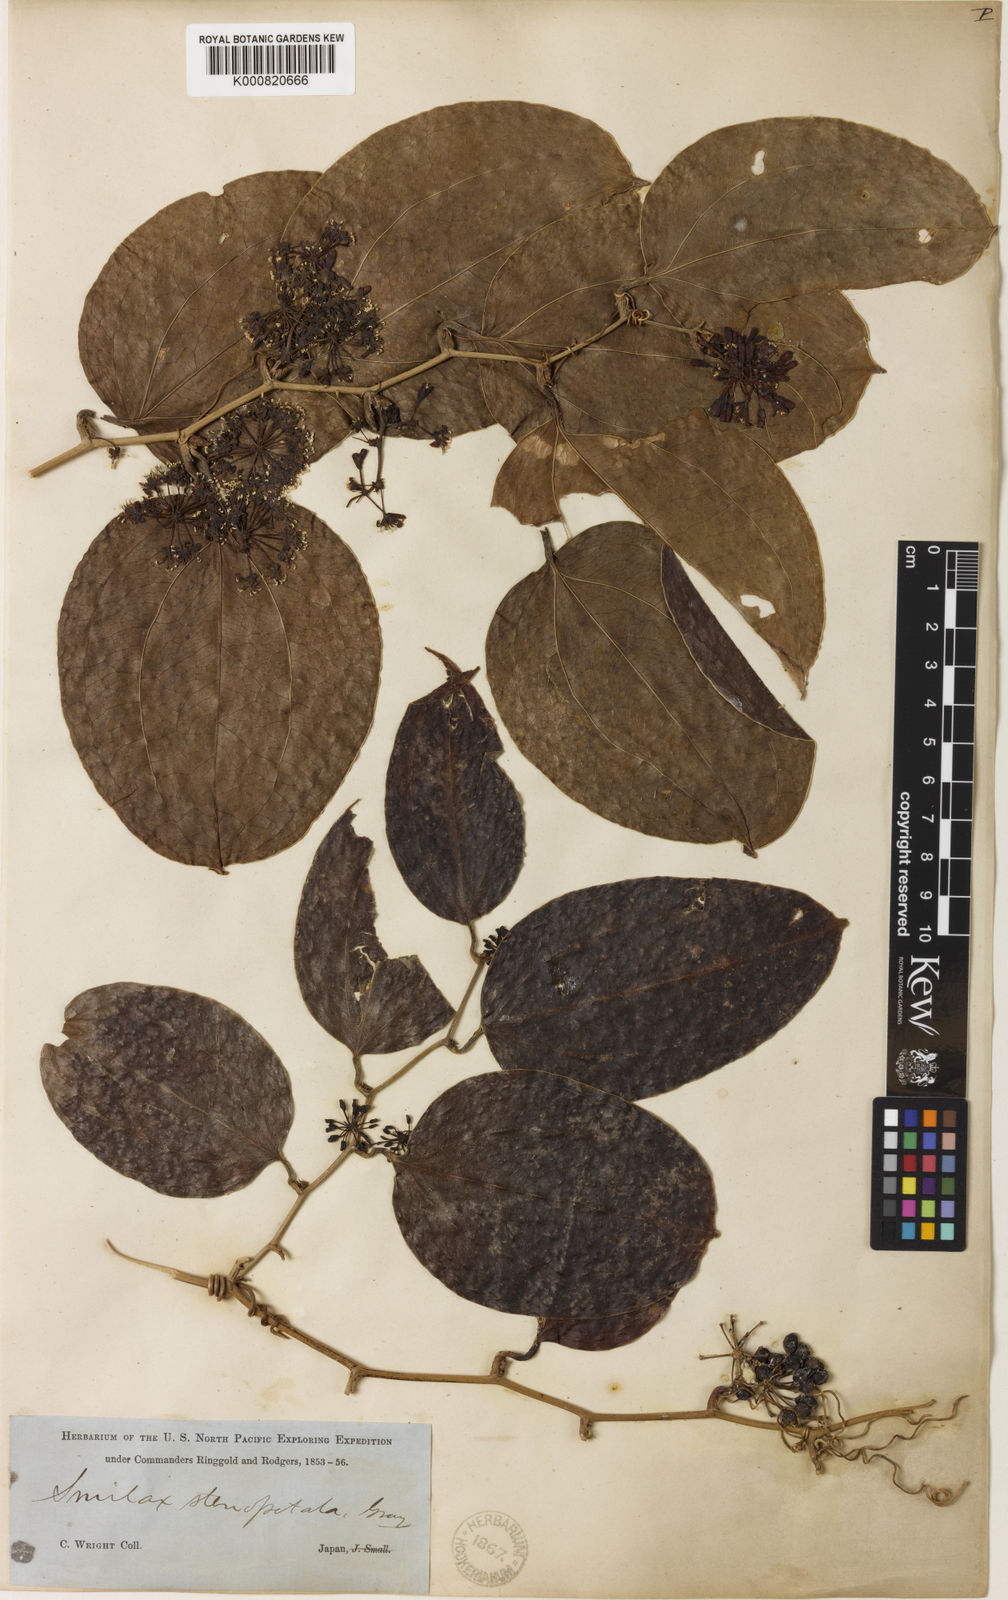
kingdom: Plantae
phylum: Tracheophyta
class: Liliopsida
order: Liliales
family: Smilacaceae
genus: Smilax
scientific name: Smilax bracteata
